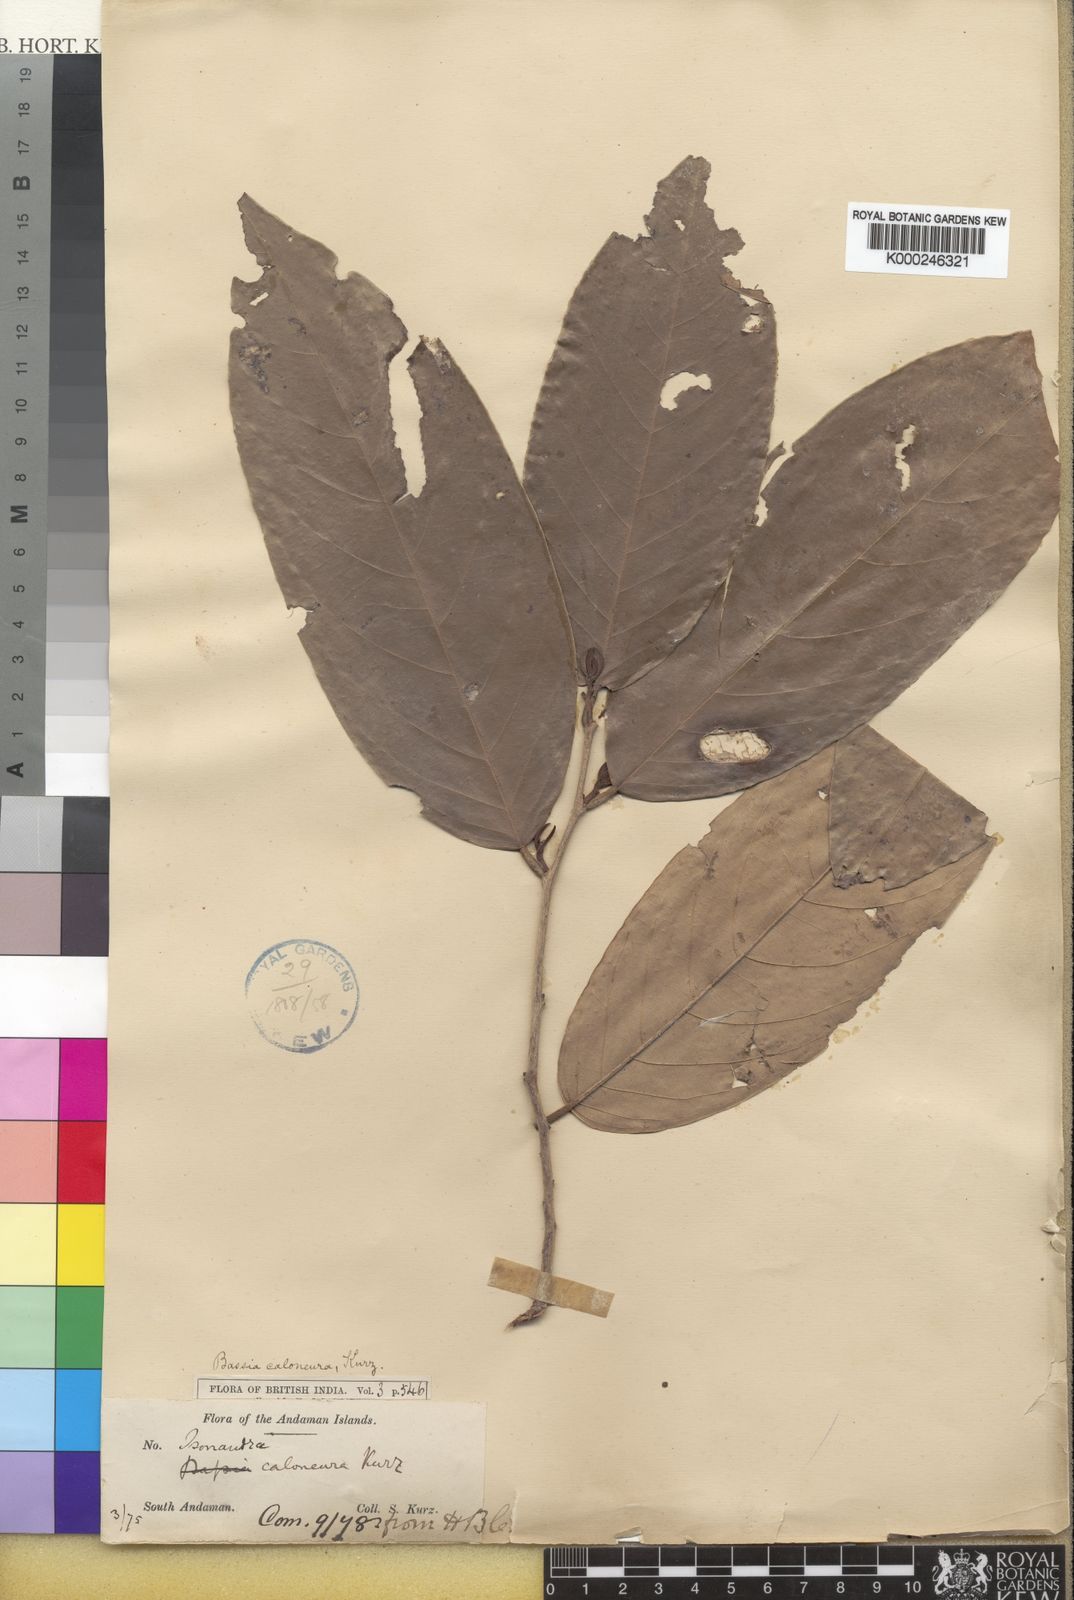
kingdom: Plantae
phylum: Tracheophyta
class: Magnoliopsida
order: Malpighiales
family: Phyllanthaceae
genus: Cleistanthus
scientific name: Cleistanthus oblongifolius
